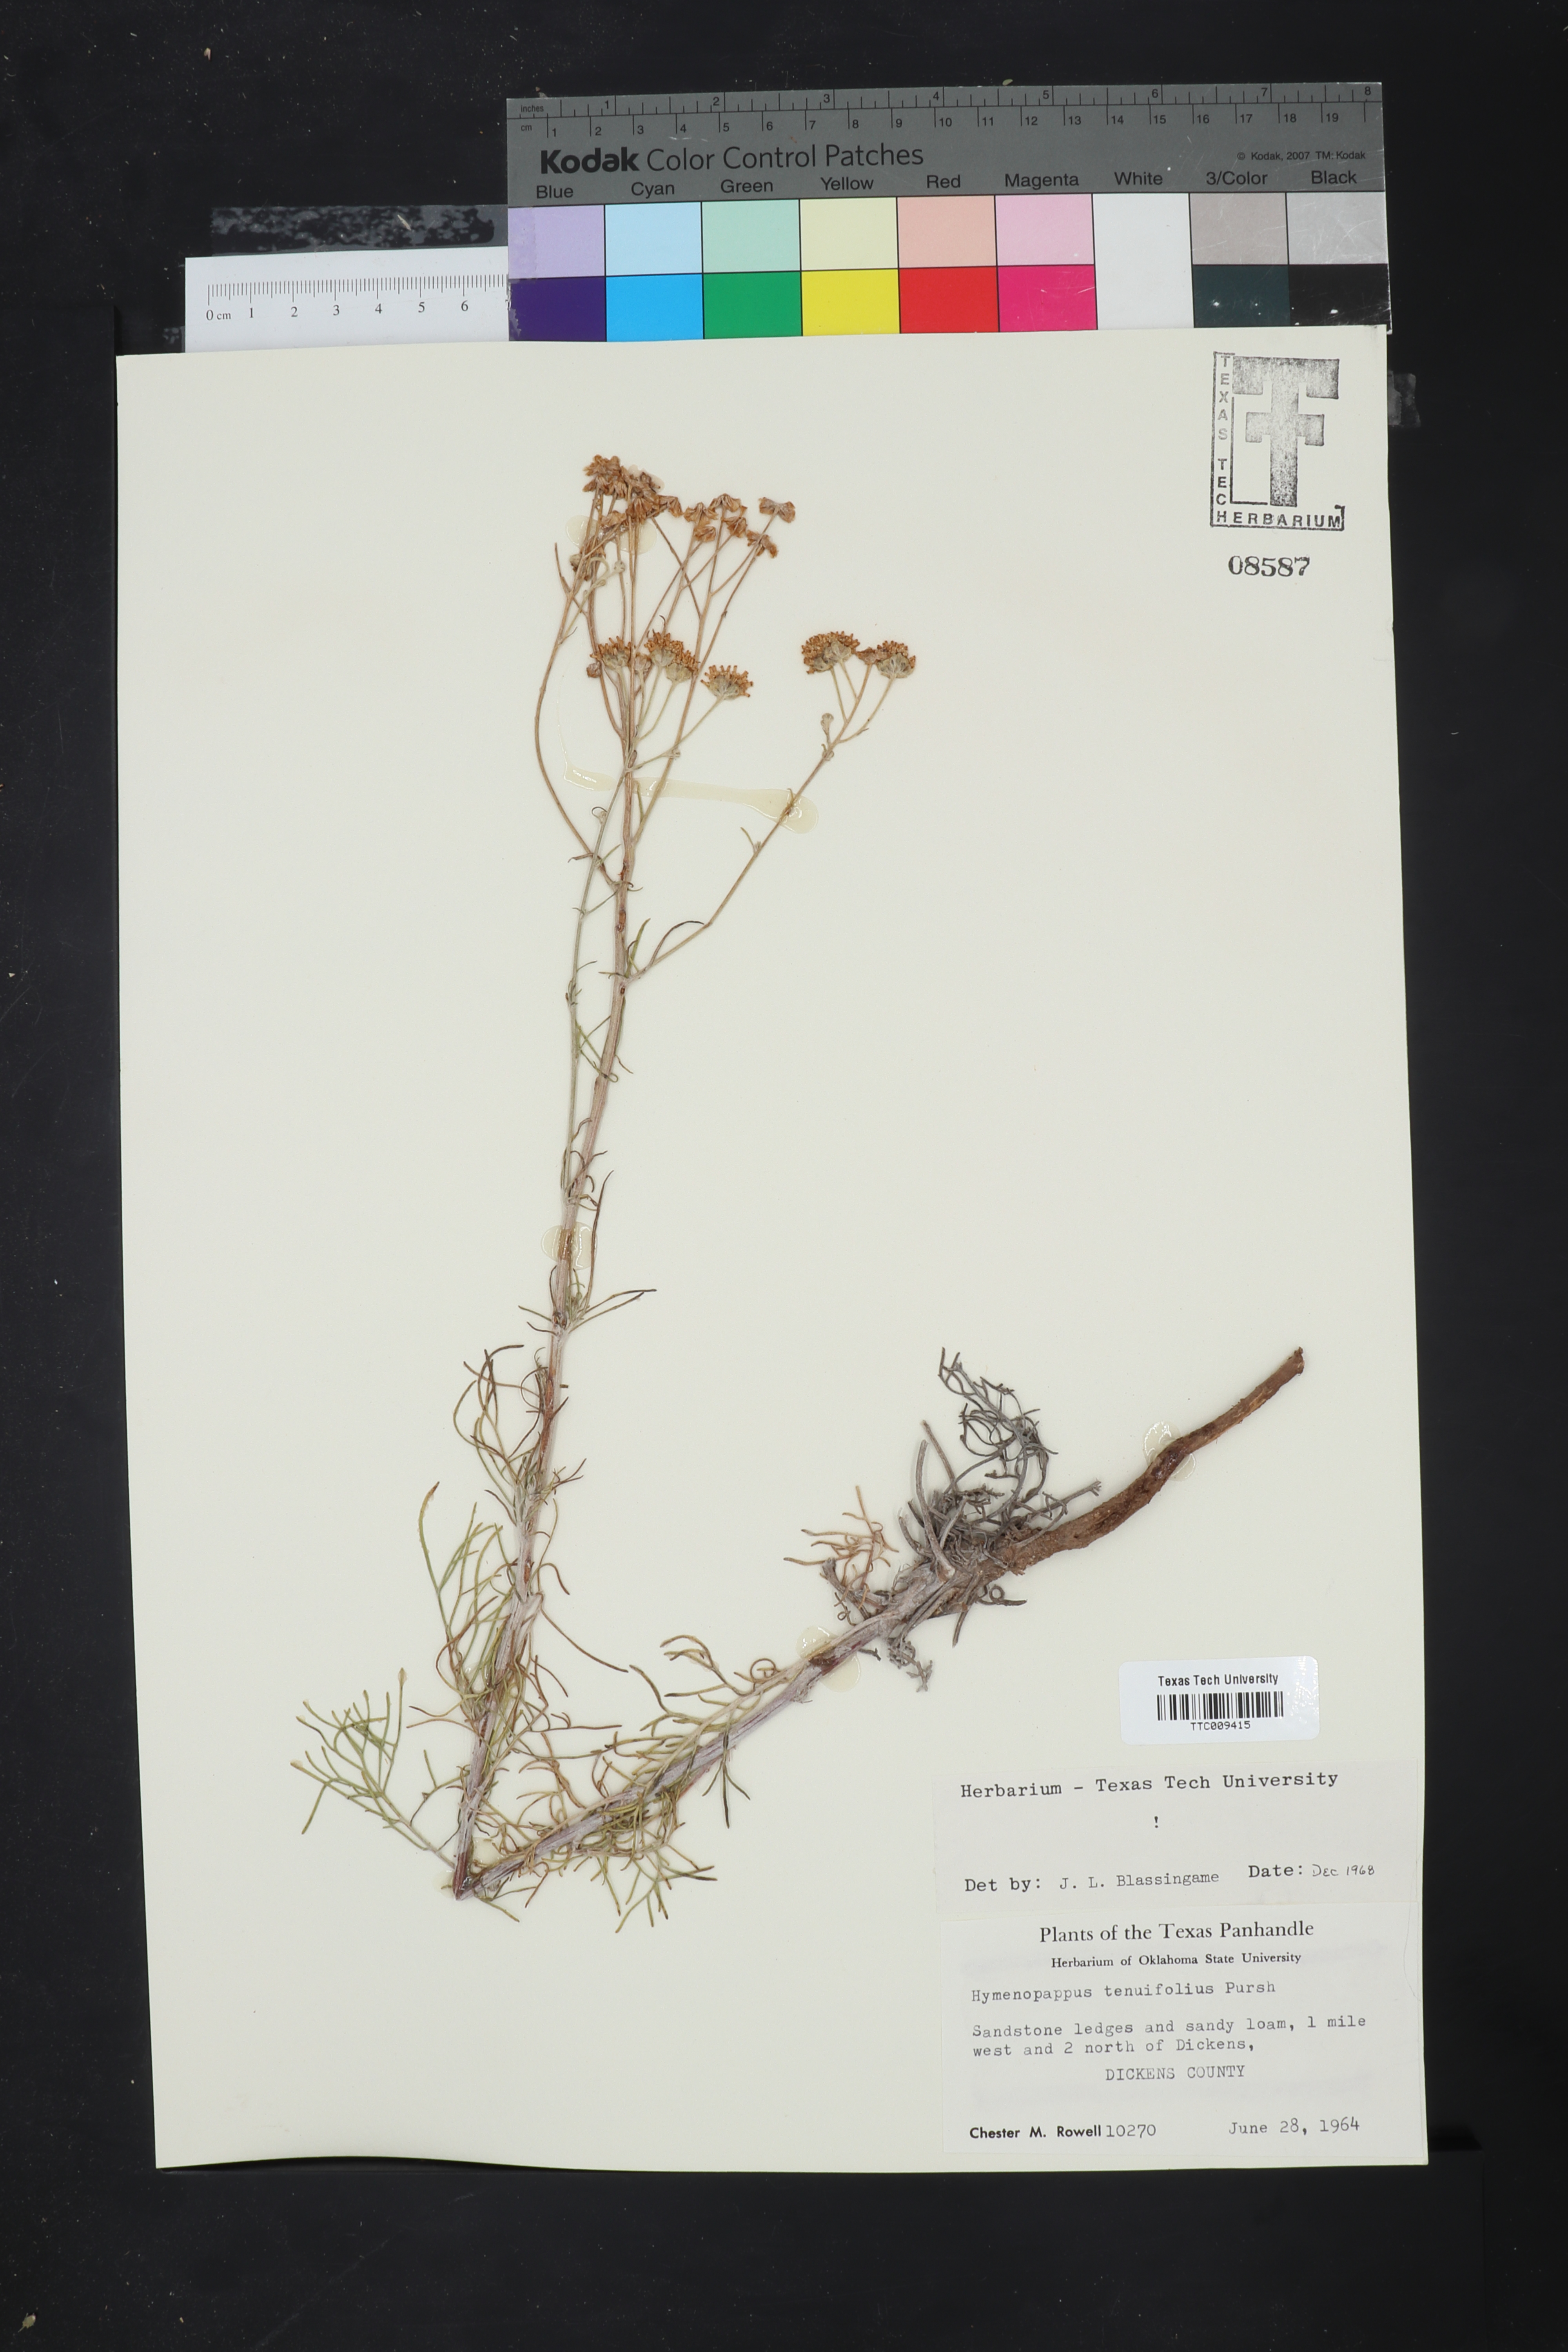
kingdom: Plantae
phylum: Tracheophyta
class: Magnoliopsida
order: Asterales
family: Asteraceae
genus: Hymenopappus
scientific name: Hymenopappus tenuifolius
